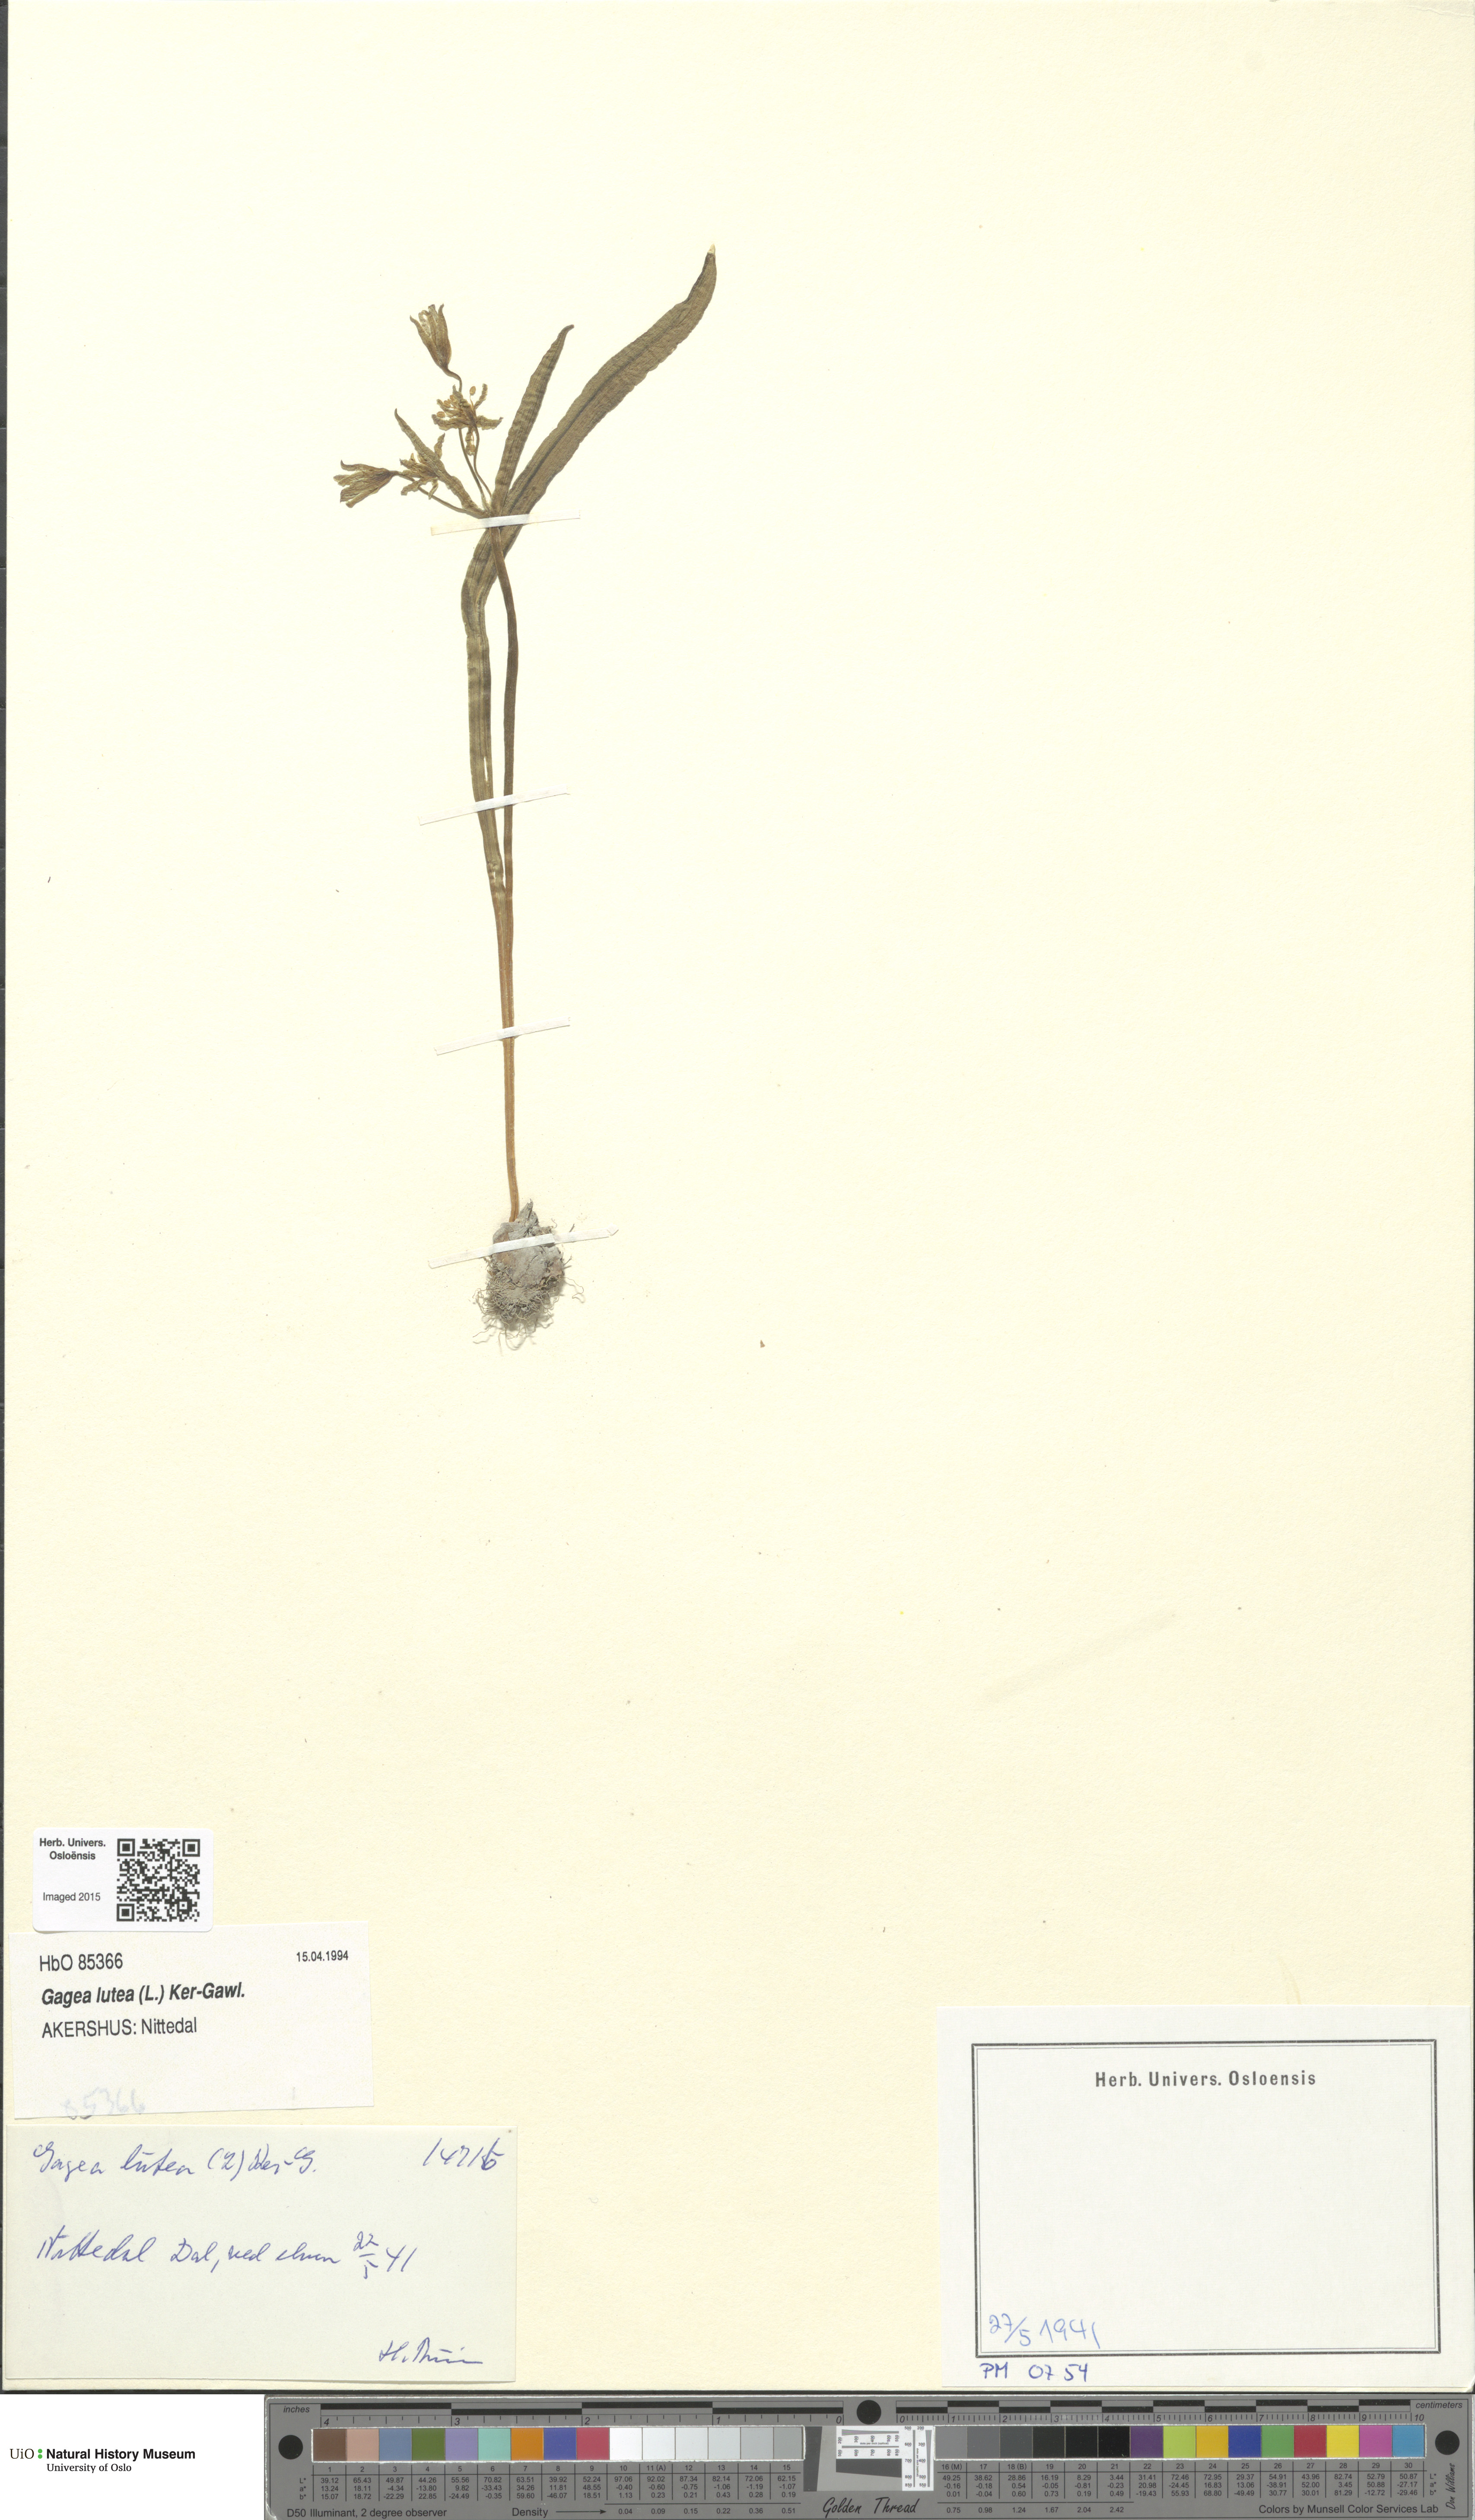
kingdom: Plantae
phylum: Tracheophyta
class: Liliopsida
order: Liliales
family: Liliaceae
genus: Gagea
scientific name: Gagea lutea
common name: Yellow star-of-bethlehem
